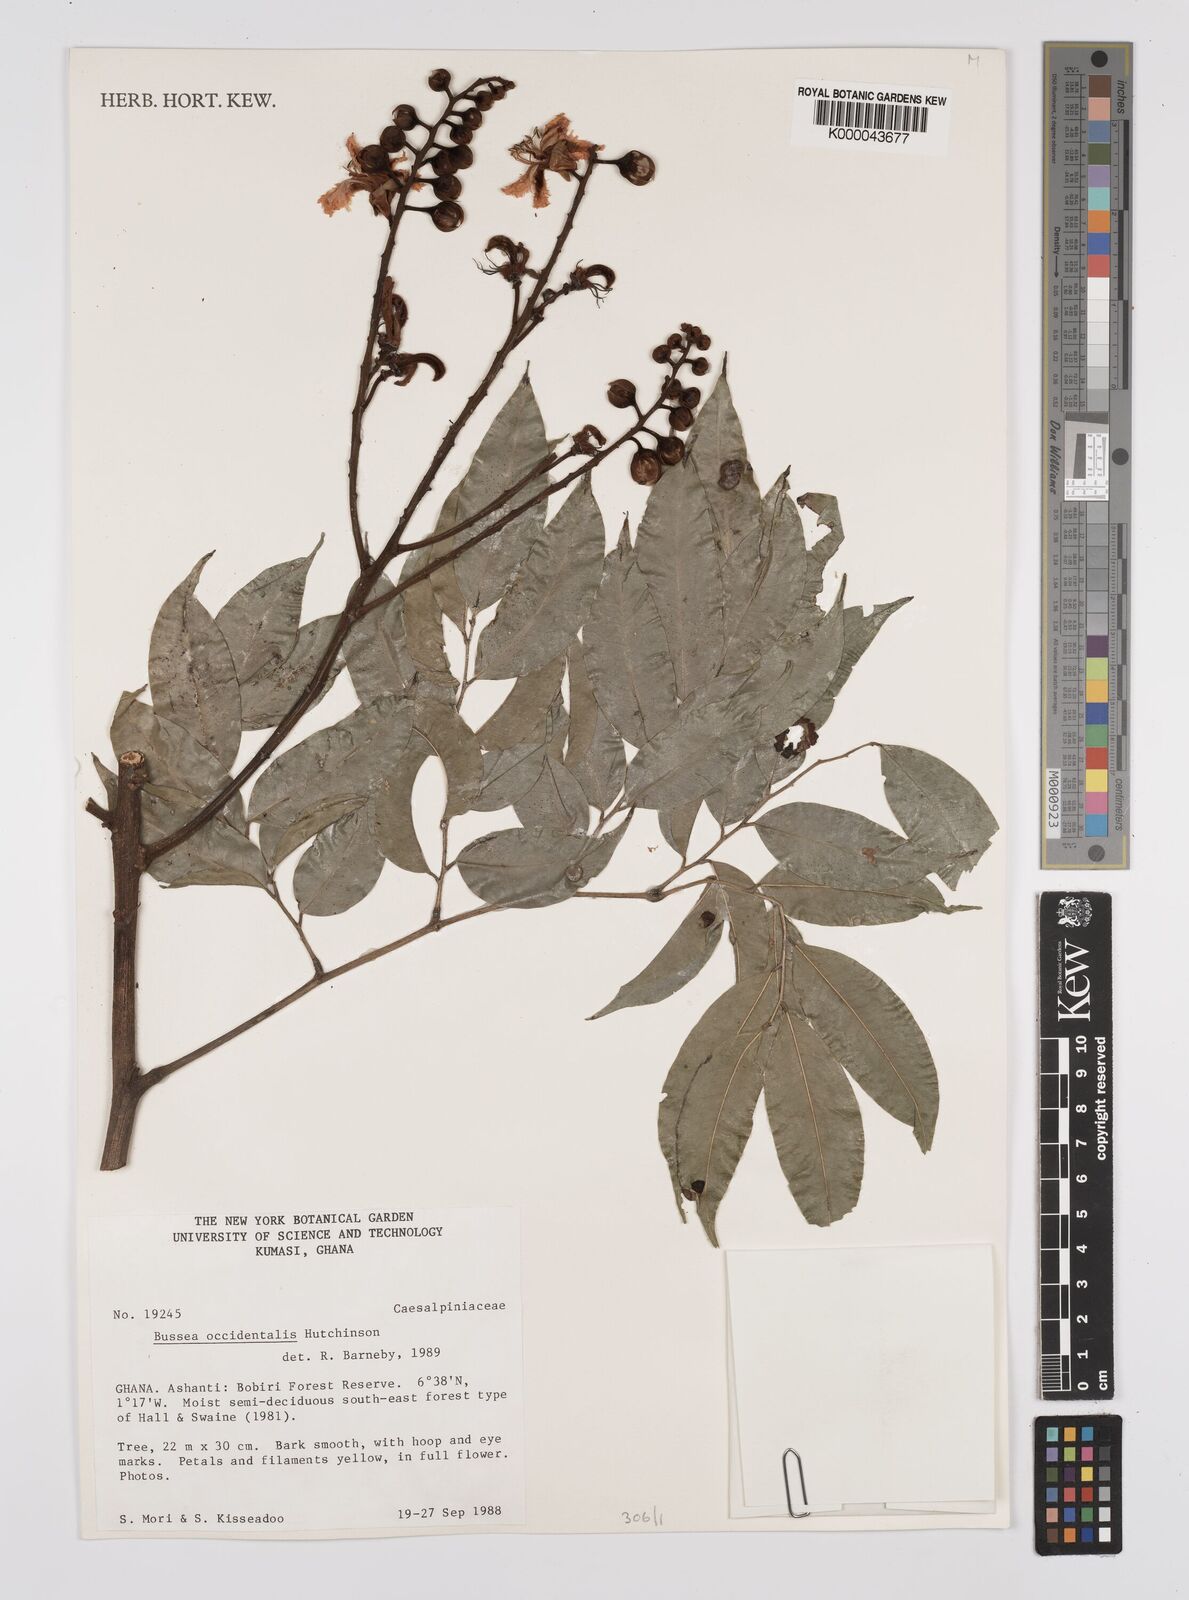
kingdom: Plantae
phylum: Tracheophyta
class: Magnoliopsida
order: Fabales
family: Fabaceae
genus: Bussea
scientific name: Bussea occidentalis
